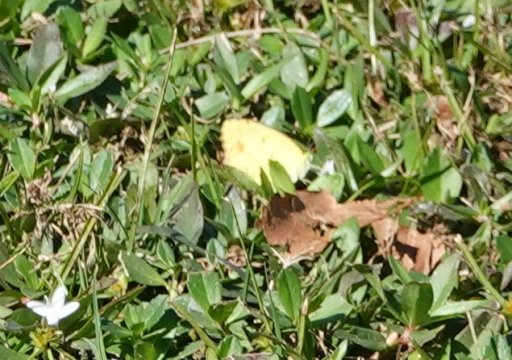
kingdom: Animalia
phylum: Arthropoda
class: Insecta
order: Lepidoptera
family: Pieridae
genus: Pyrisitia
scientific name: Pyrisitia lisa
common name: Little Yellow
